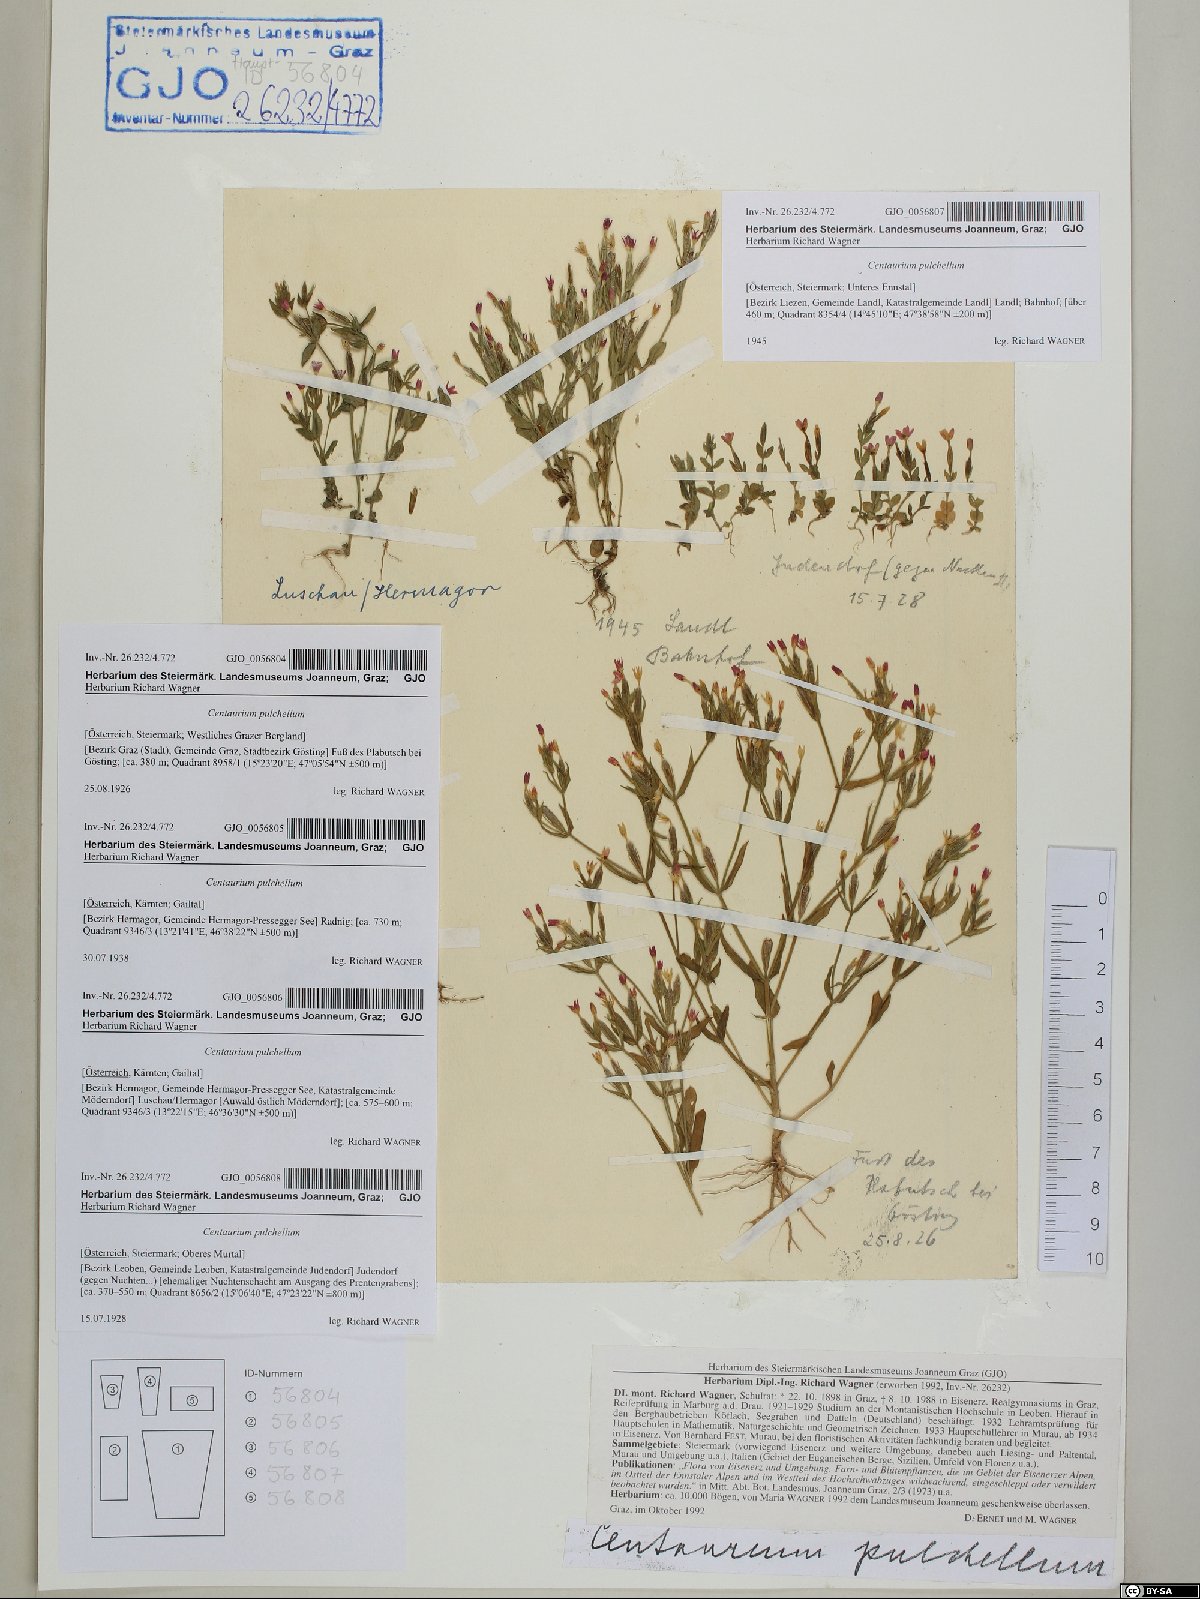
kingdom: Plantae
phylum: Tracheophyta
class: Magnoliopsida
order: Gentianales
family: Gentianaceae
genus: Centaurium
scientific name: Centaurium pulchellum
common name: Lesser centaury
